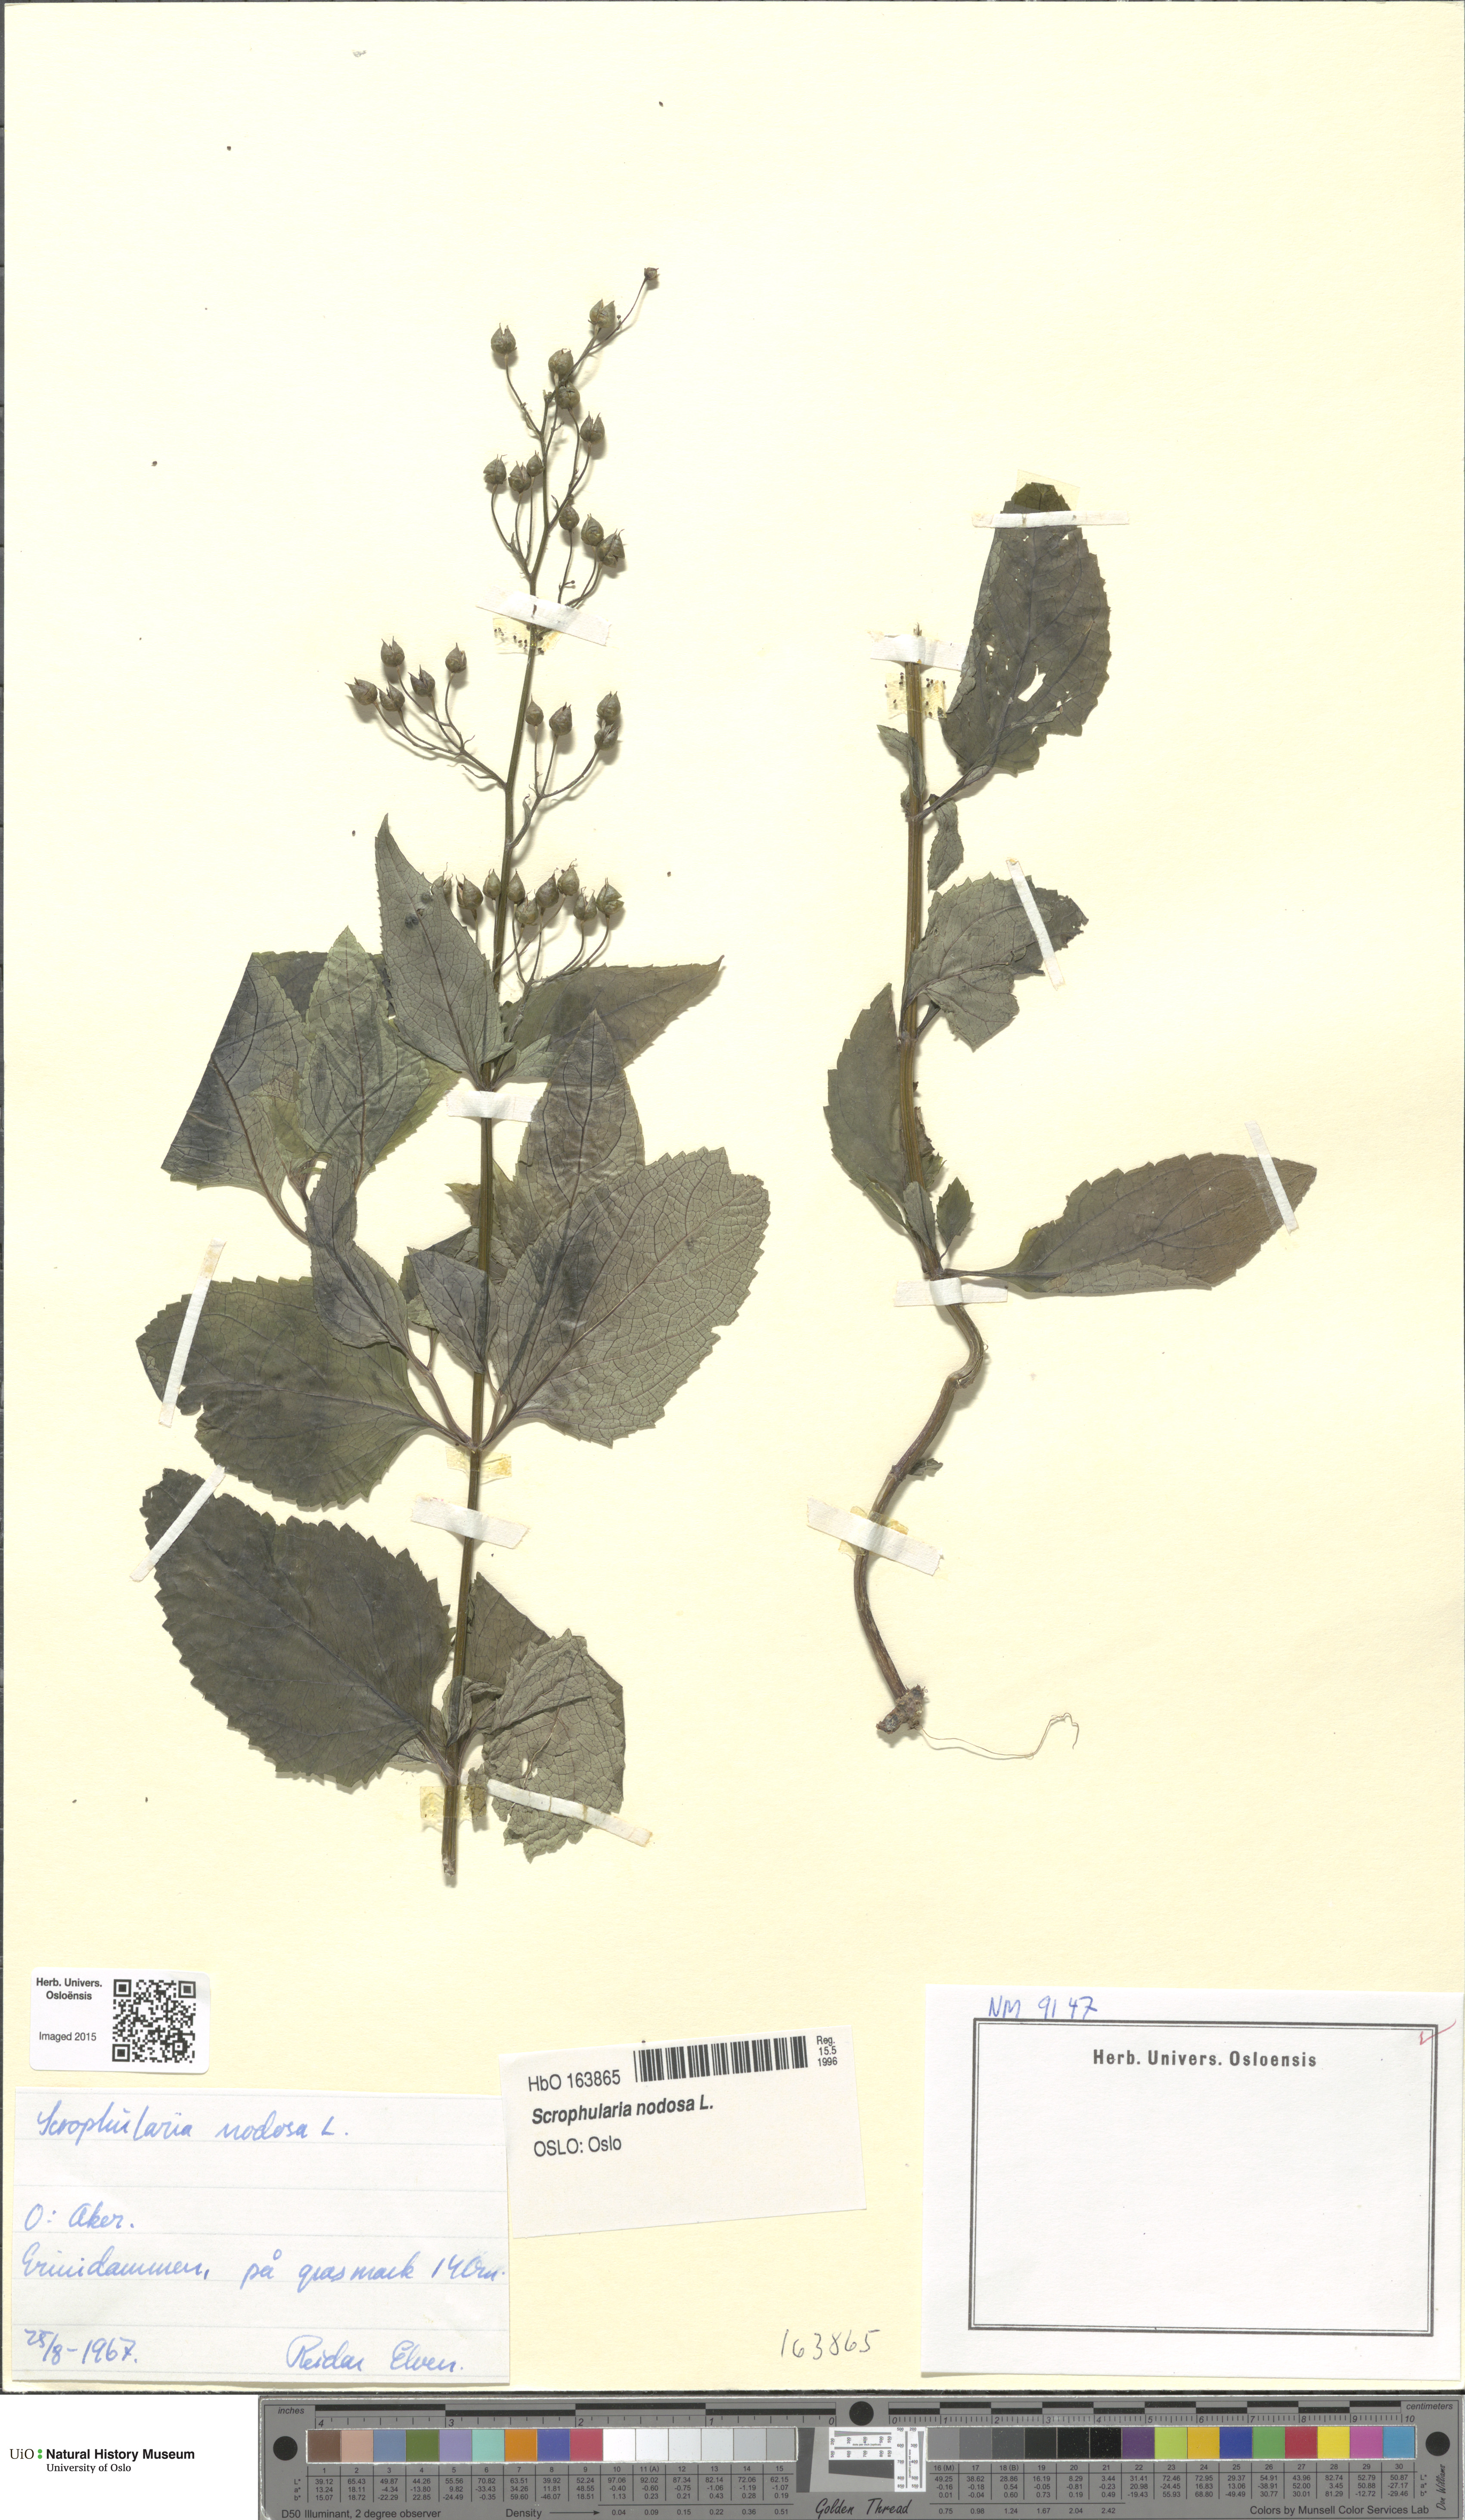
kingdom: Plantae
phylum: Tracheophyta
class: Magnoliopsida
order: Lamiales
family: Scrophulariaceae
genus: Scrophularia
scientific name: Scrophularia nodosa
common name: Common figwort
